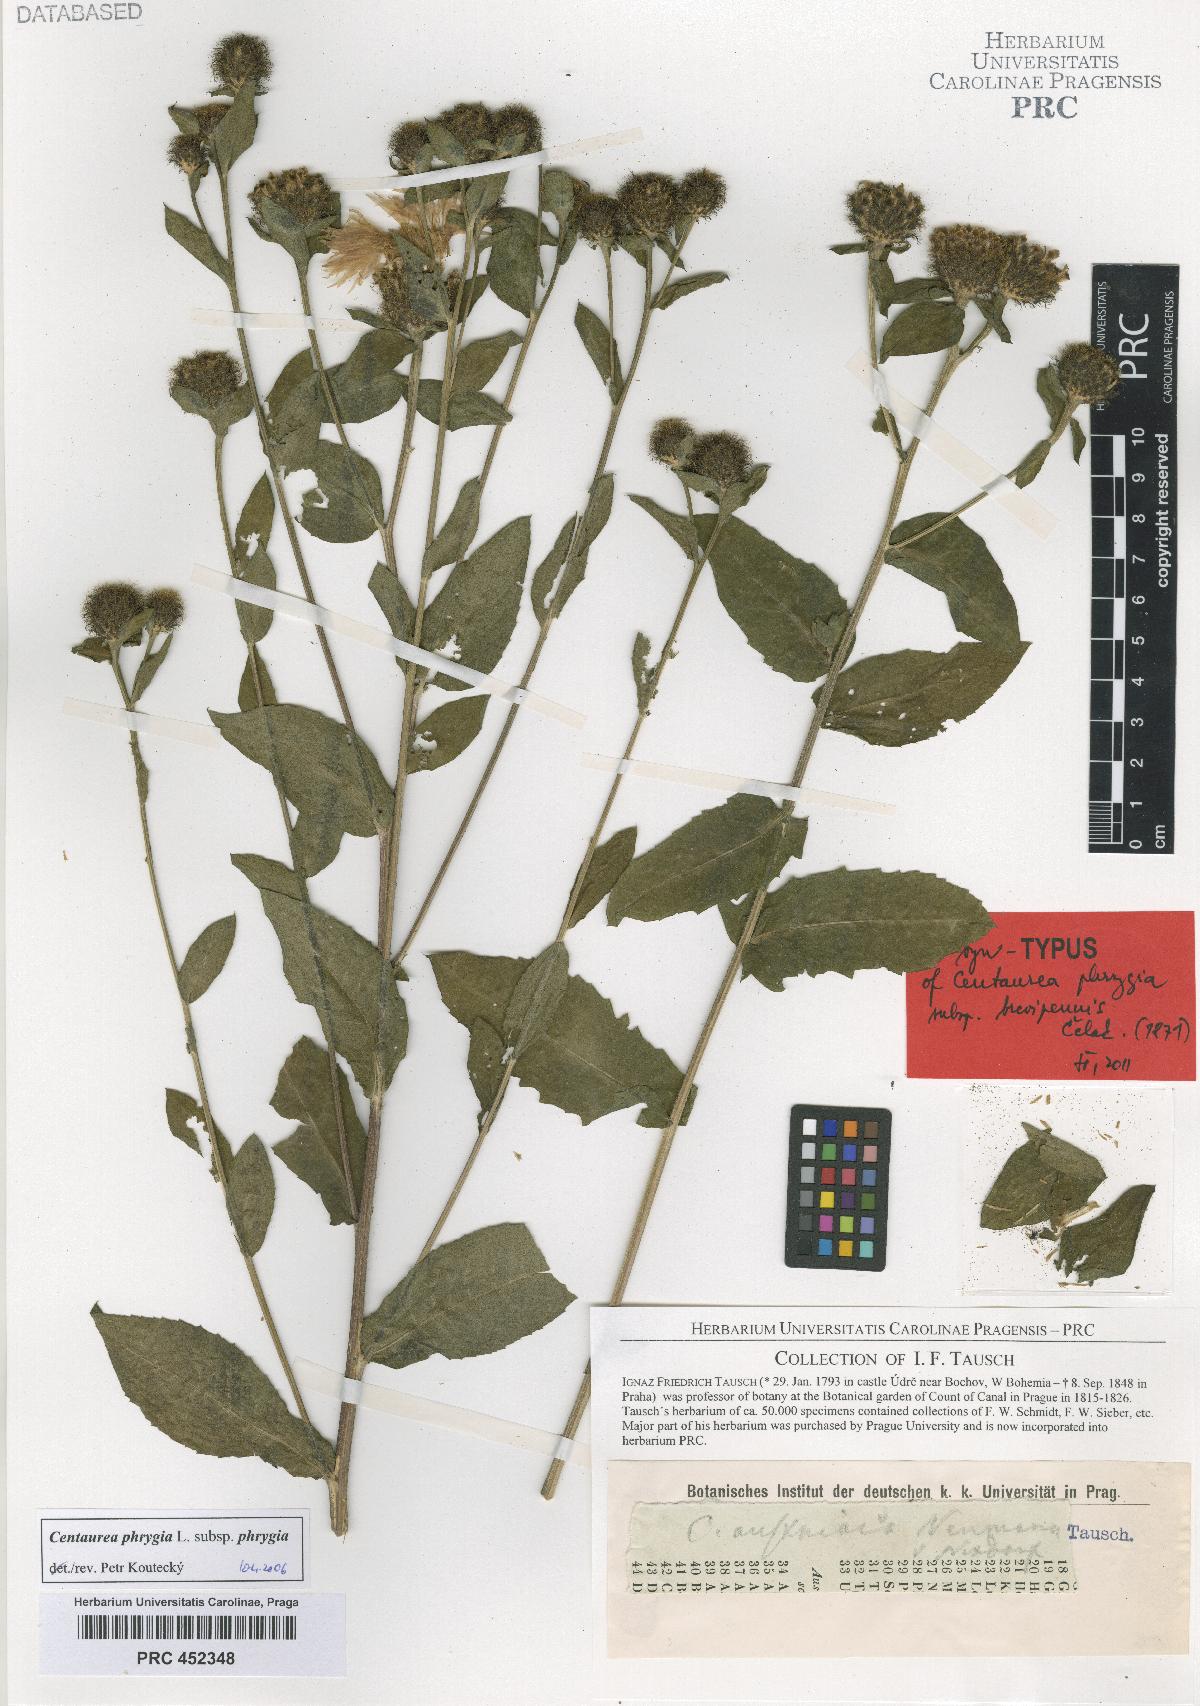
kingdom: Plantae
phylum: Tracheophyta
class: Magnoliopsida
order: Asterales
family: Asteraceae
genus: Centaurea
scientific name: Centaurea phrygia
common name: Wig knapweed
